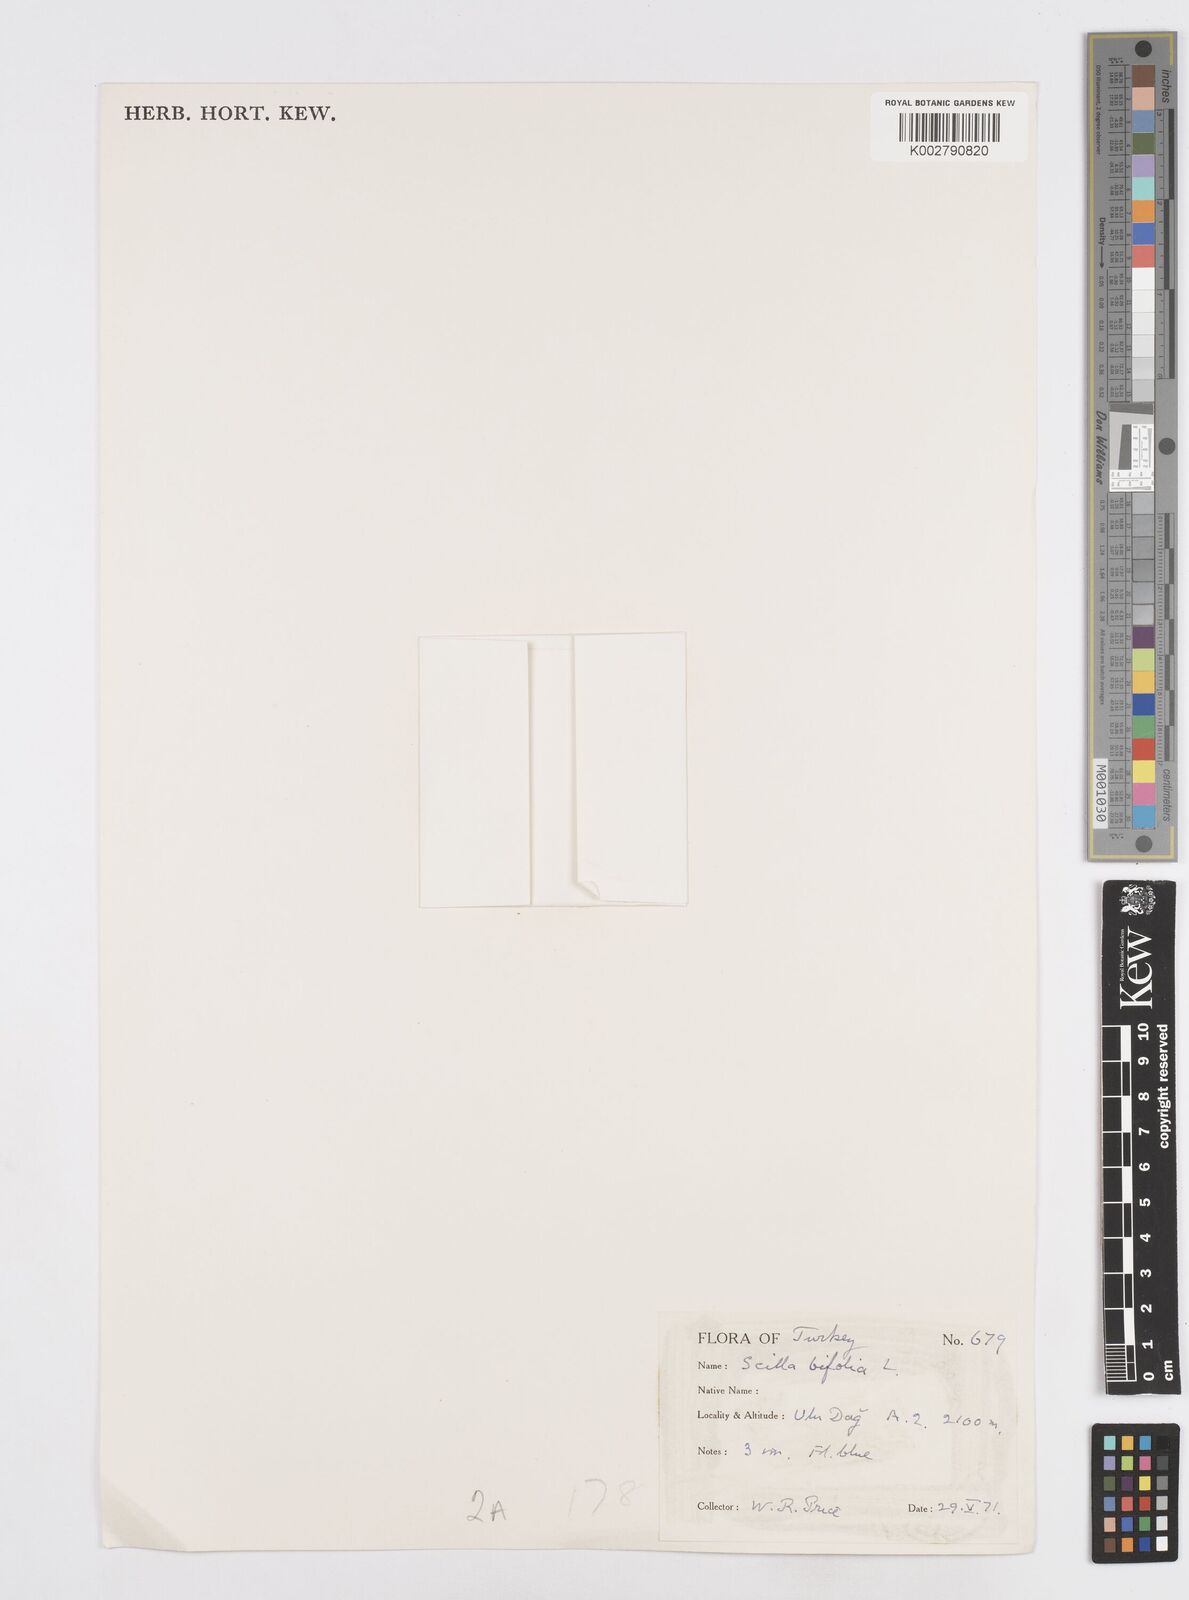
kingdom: Plantae
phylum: Tracheophyta
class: Liliopsida
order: Asparagales
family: Asparagaceae
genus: Scilla
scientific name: Scilla bifolia
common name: Alpine squill
